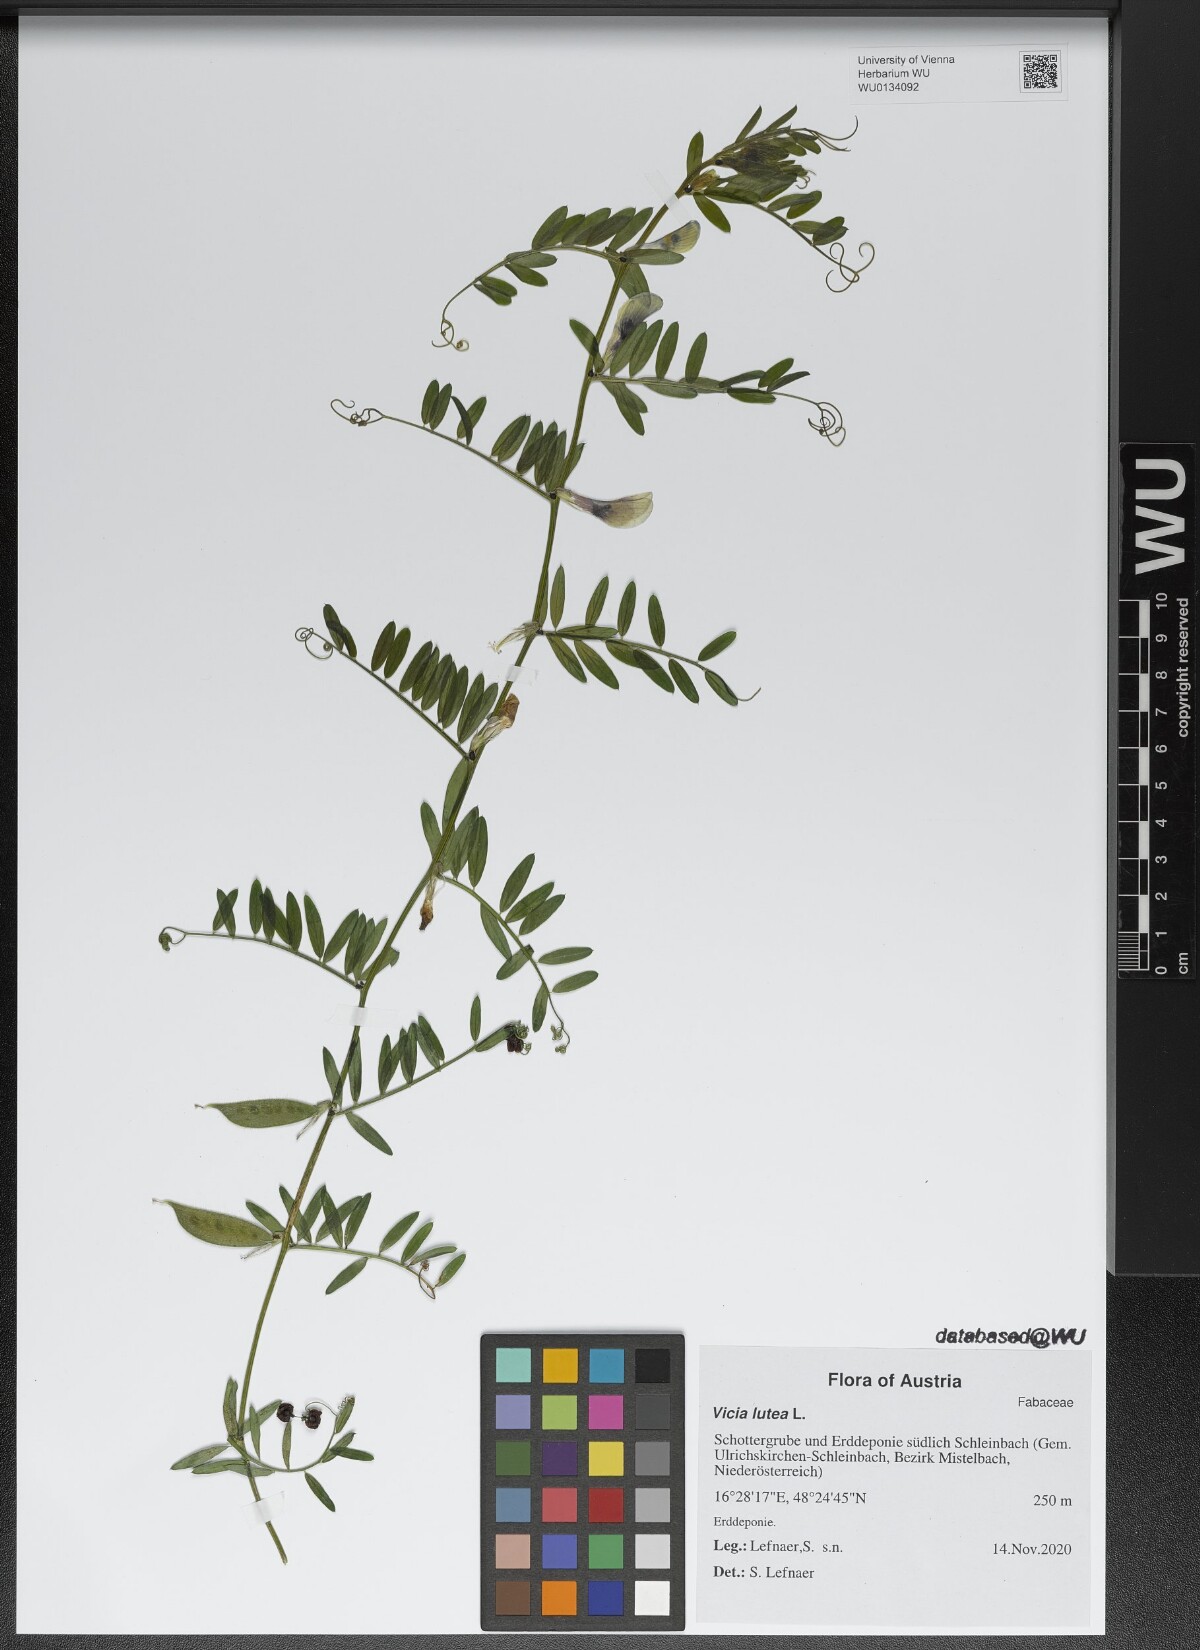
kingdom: Plantae
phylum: Tracheophyta
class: Magnoliopsida
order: Fabales
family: Fabaceae
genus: Vicia
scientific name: Vicia lutea
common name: Smooth yellow vetch
